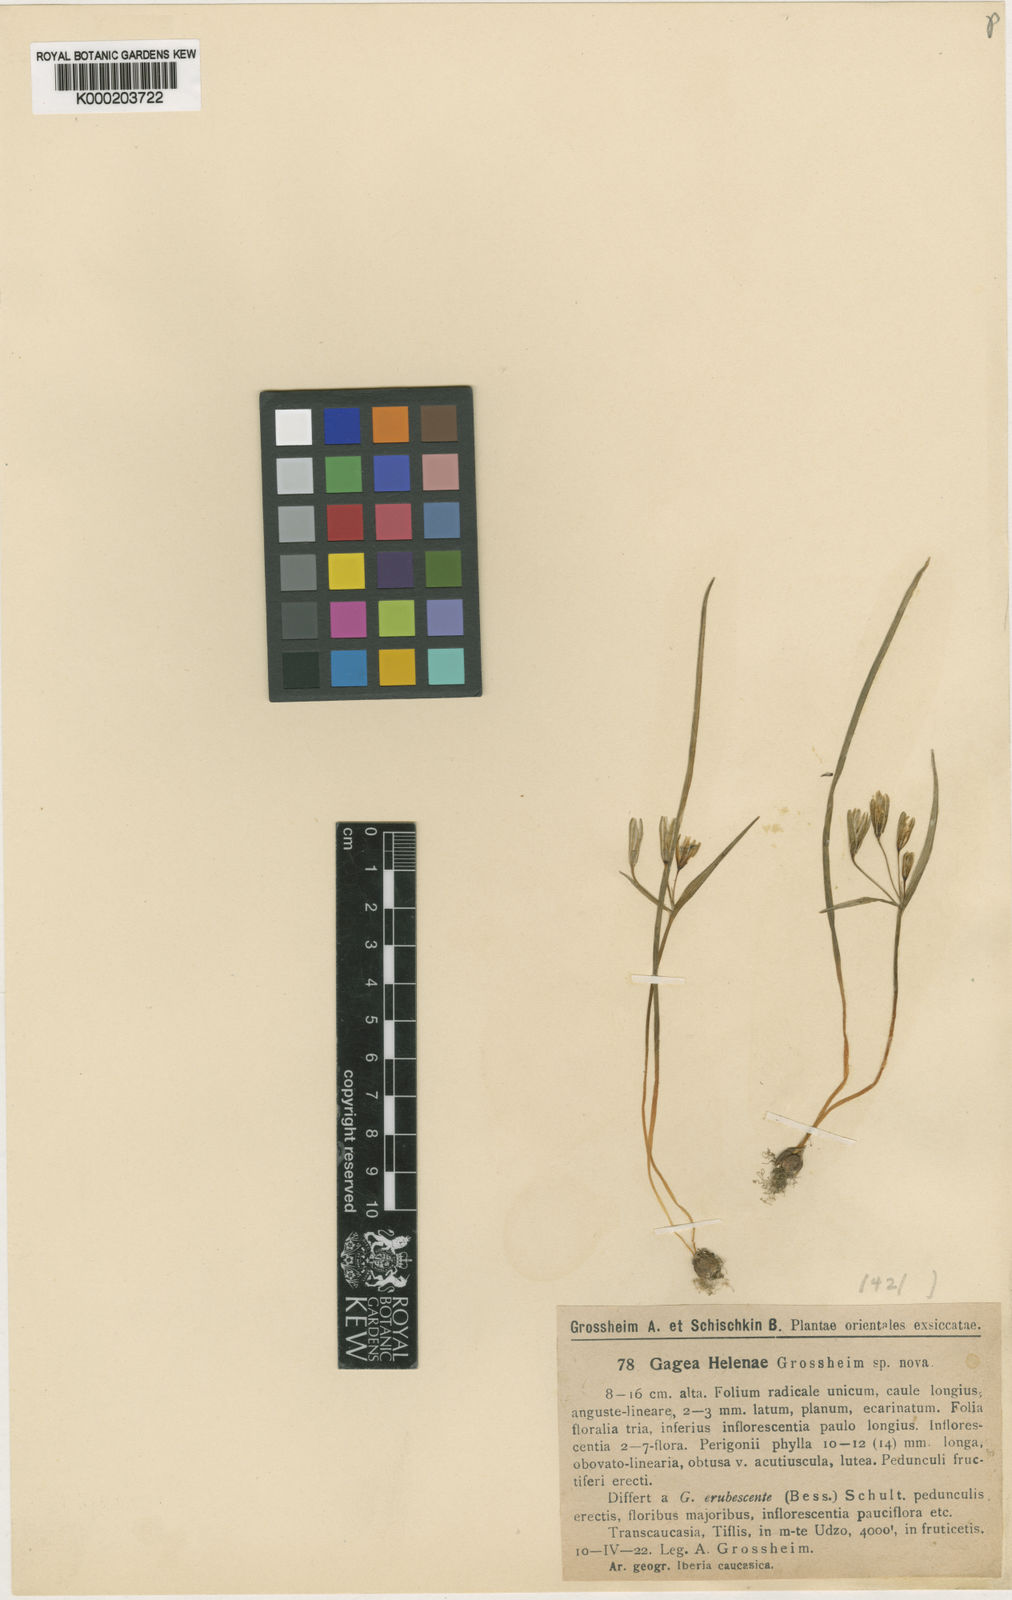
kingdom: Plantae
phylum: Tracheophyta
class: Liliopsida
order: Liliales
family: Liliaceae
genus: Gagea
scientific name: Gagea helenae
